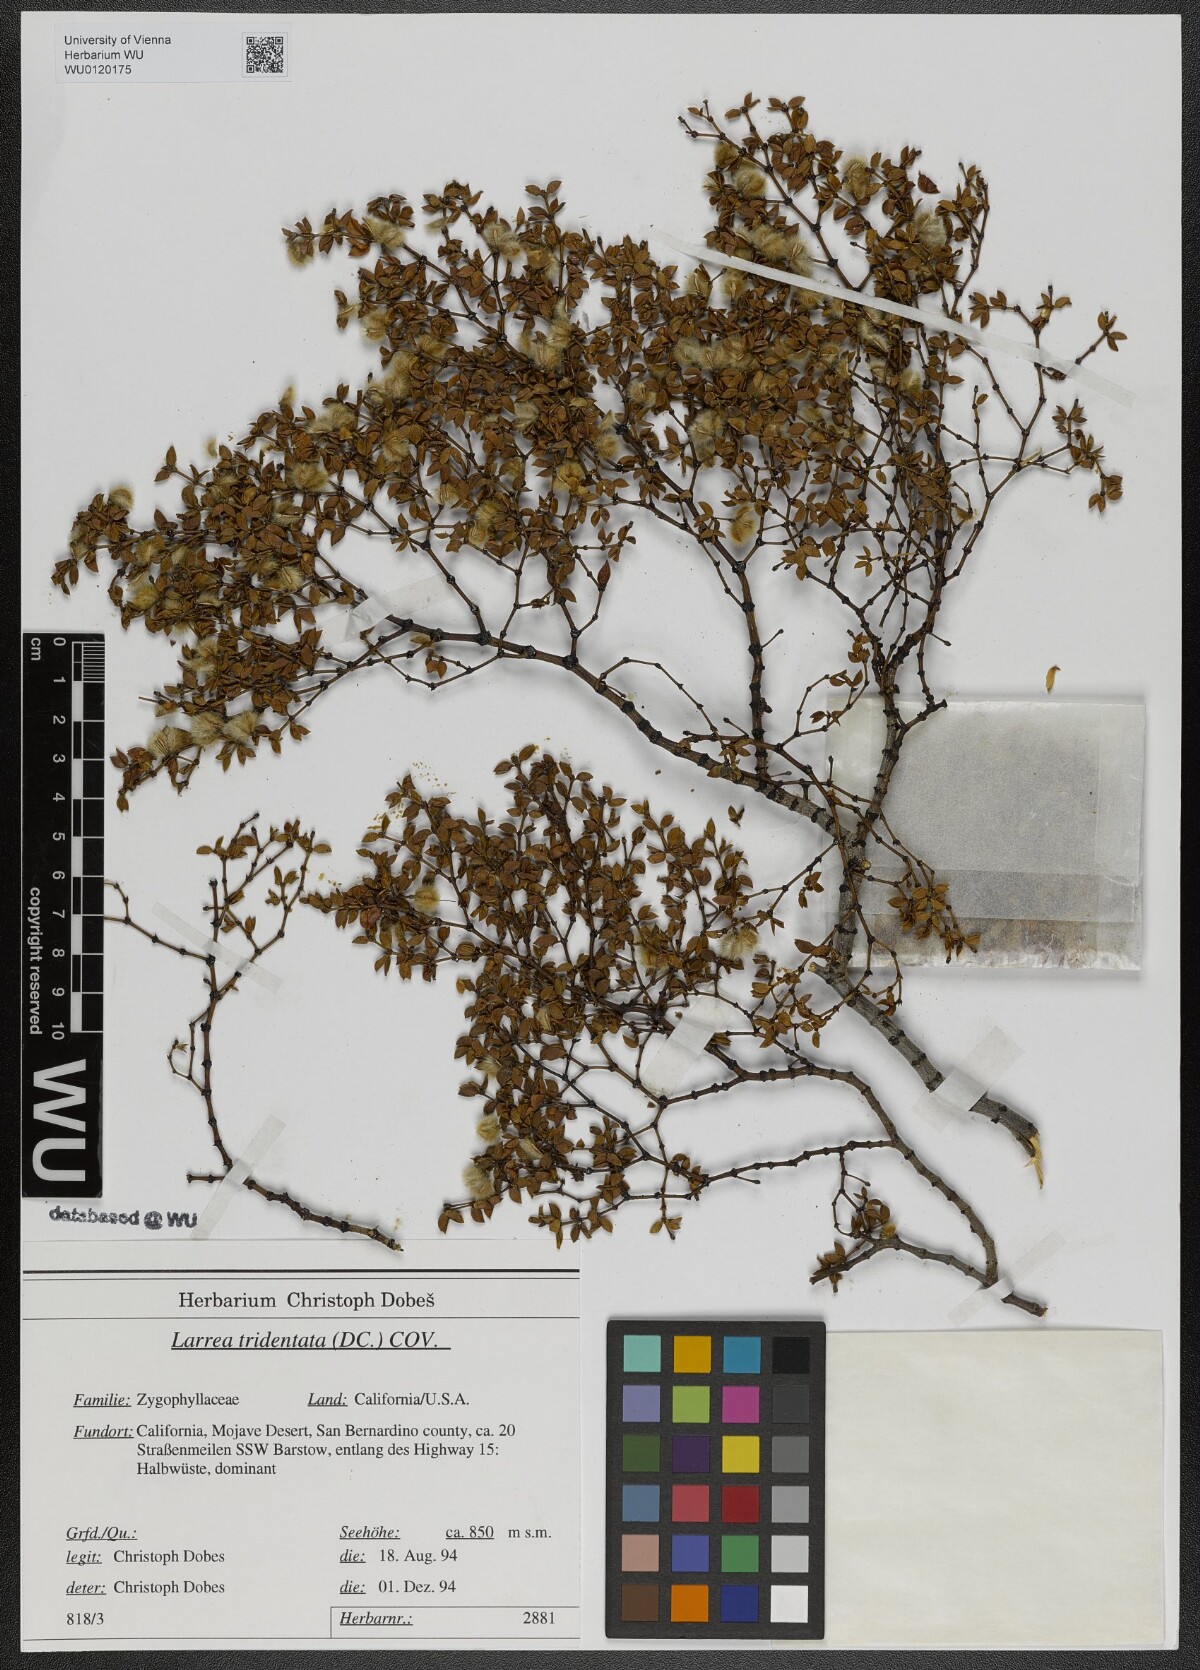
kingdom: Plantae
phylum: Tracheophyta
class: Magnoliopsida
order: Zygophyllales
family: Zygophyllaceae
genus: Larrea
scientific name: Larrea tridentata
